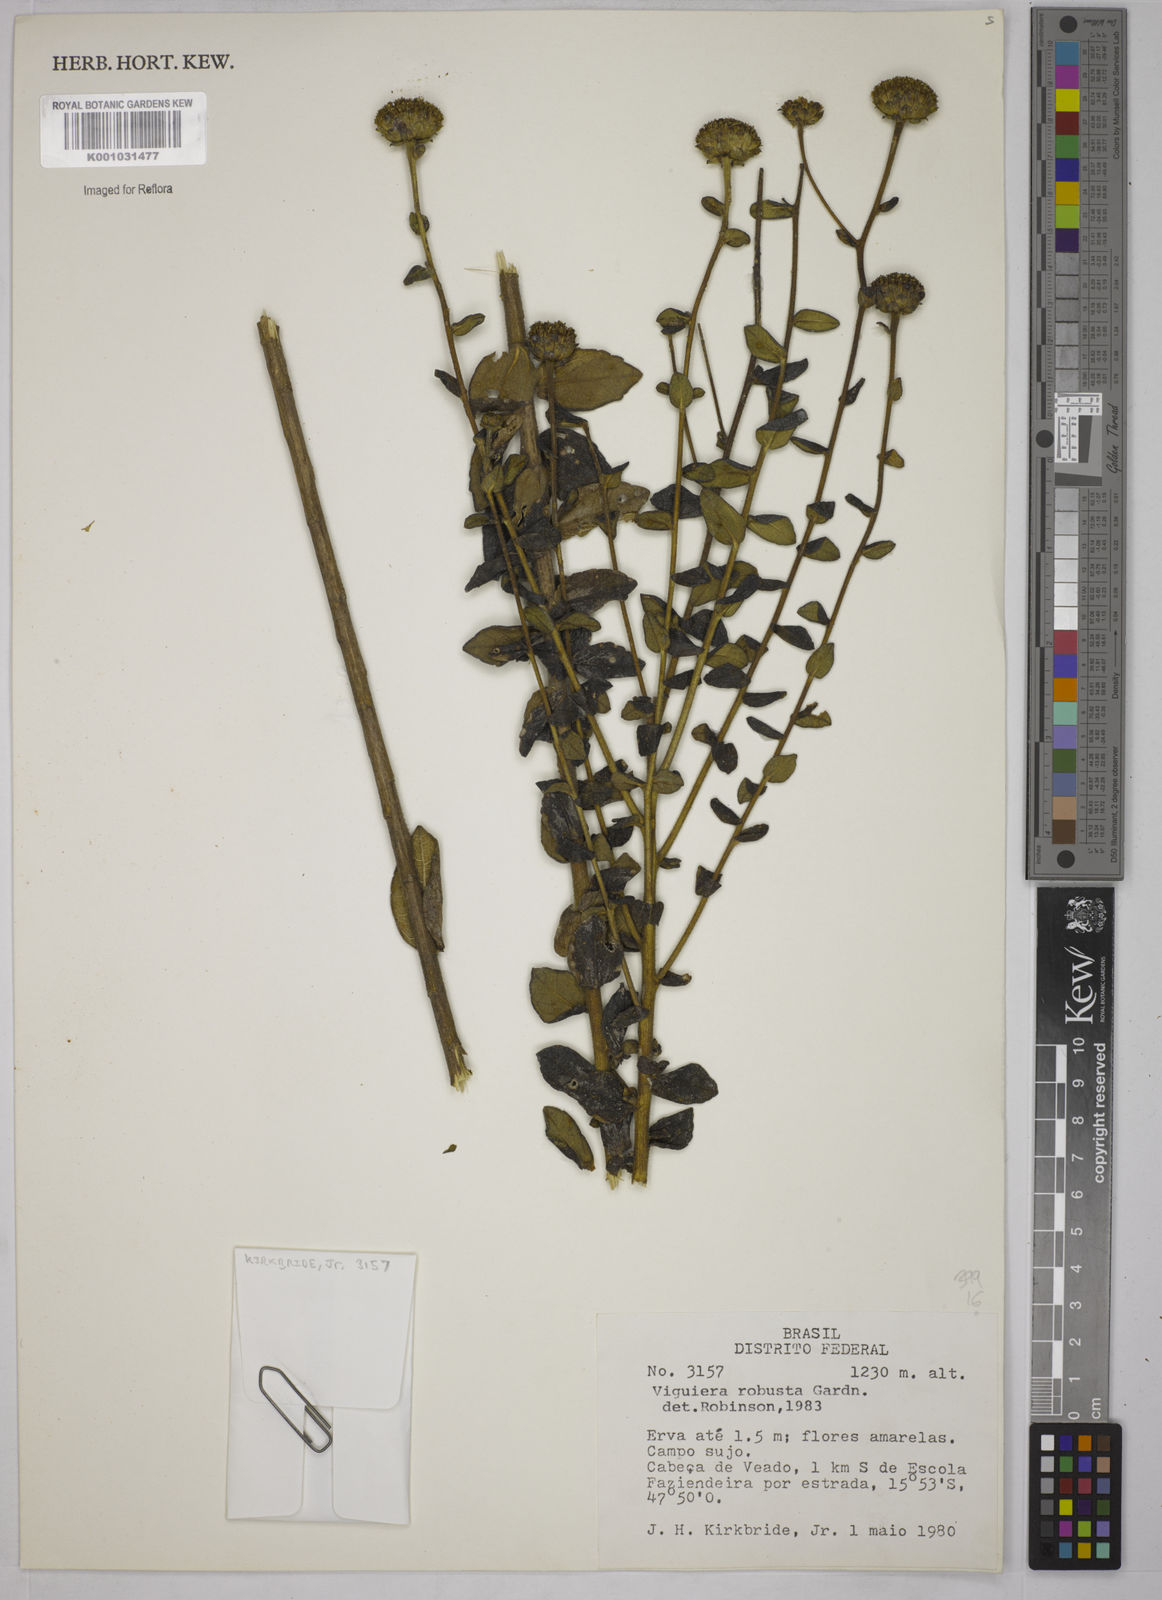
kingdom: Plantae
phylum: Tracheophyta
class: Magnoliopsida
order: Asterales
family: Asteraceae
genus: Aldama
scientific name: Aldama robusta
